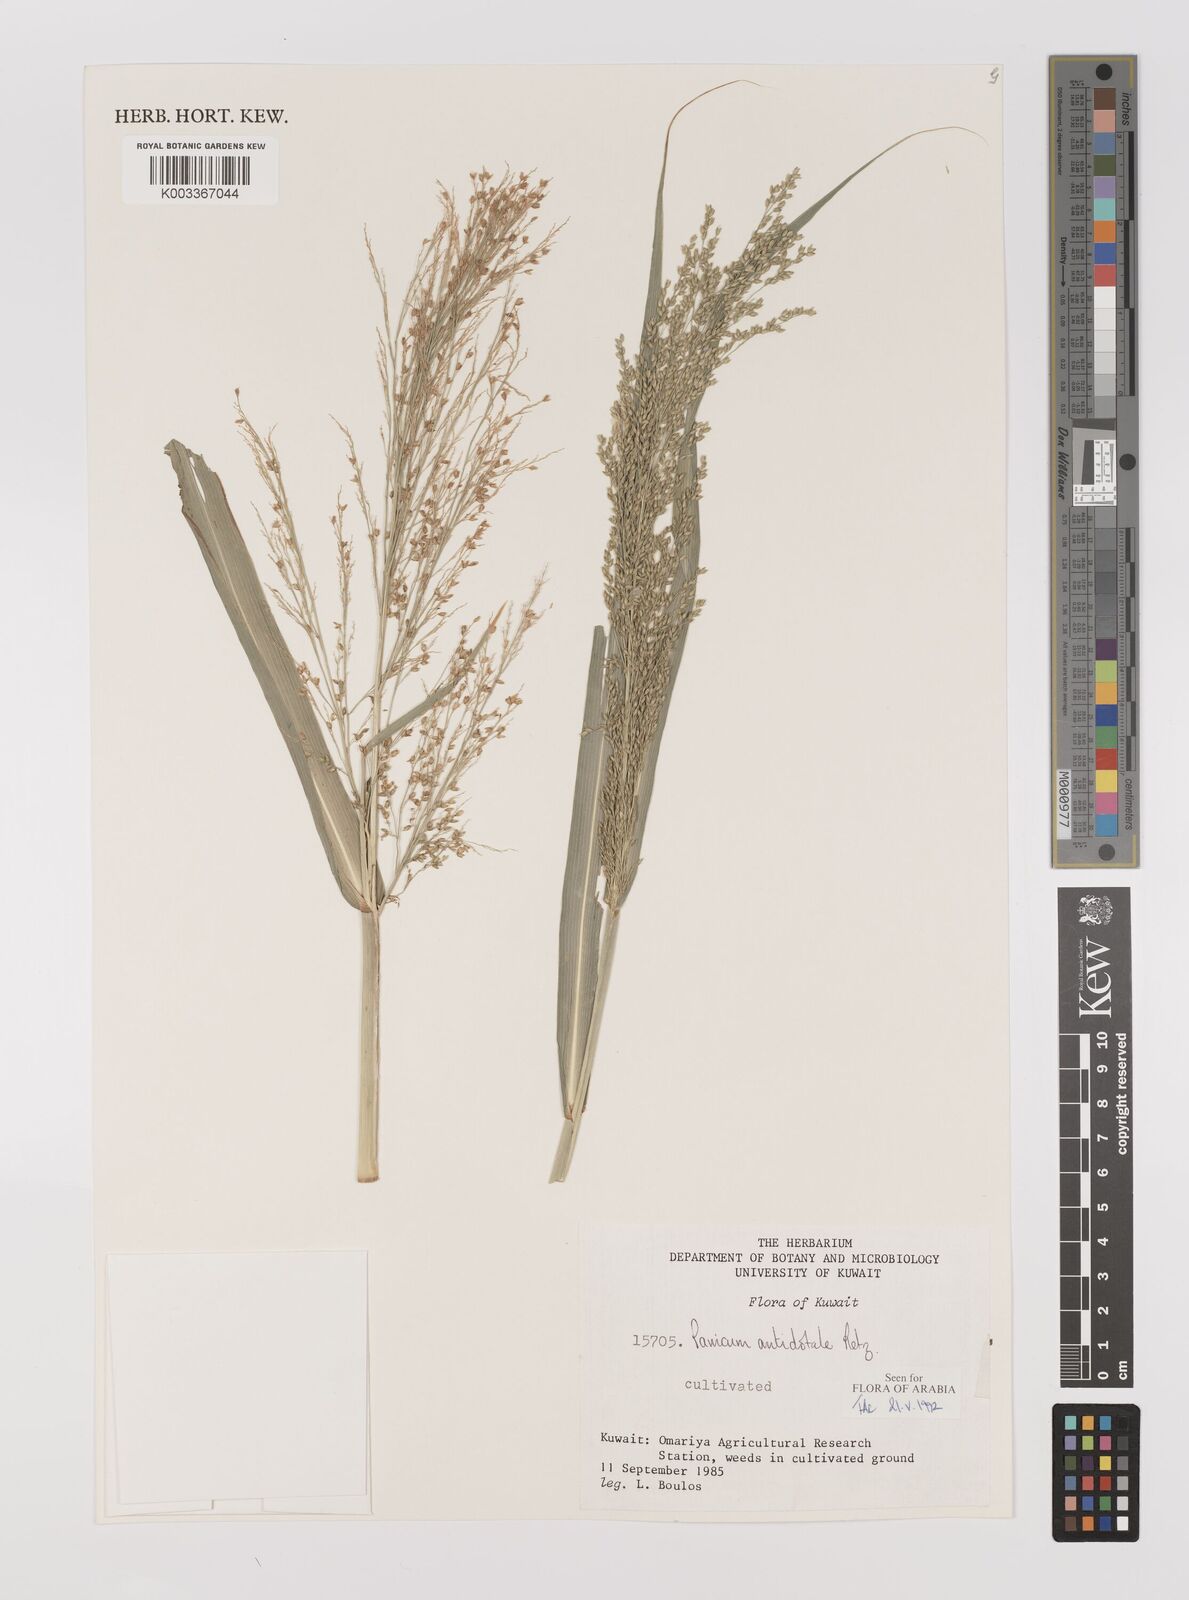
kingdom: Plantae
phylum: Tracheophyta
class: Liliopsida
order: Poales
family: Poaceae
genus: Panicum
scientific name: Panicum antidotale
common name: Blue panicum
